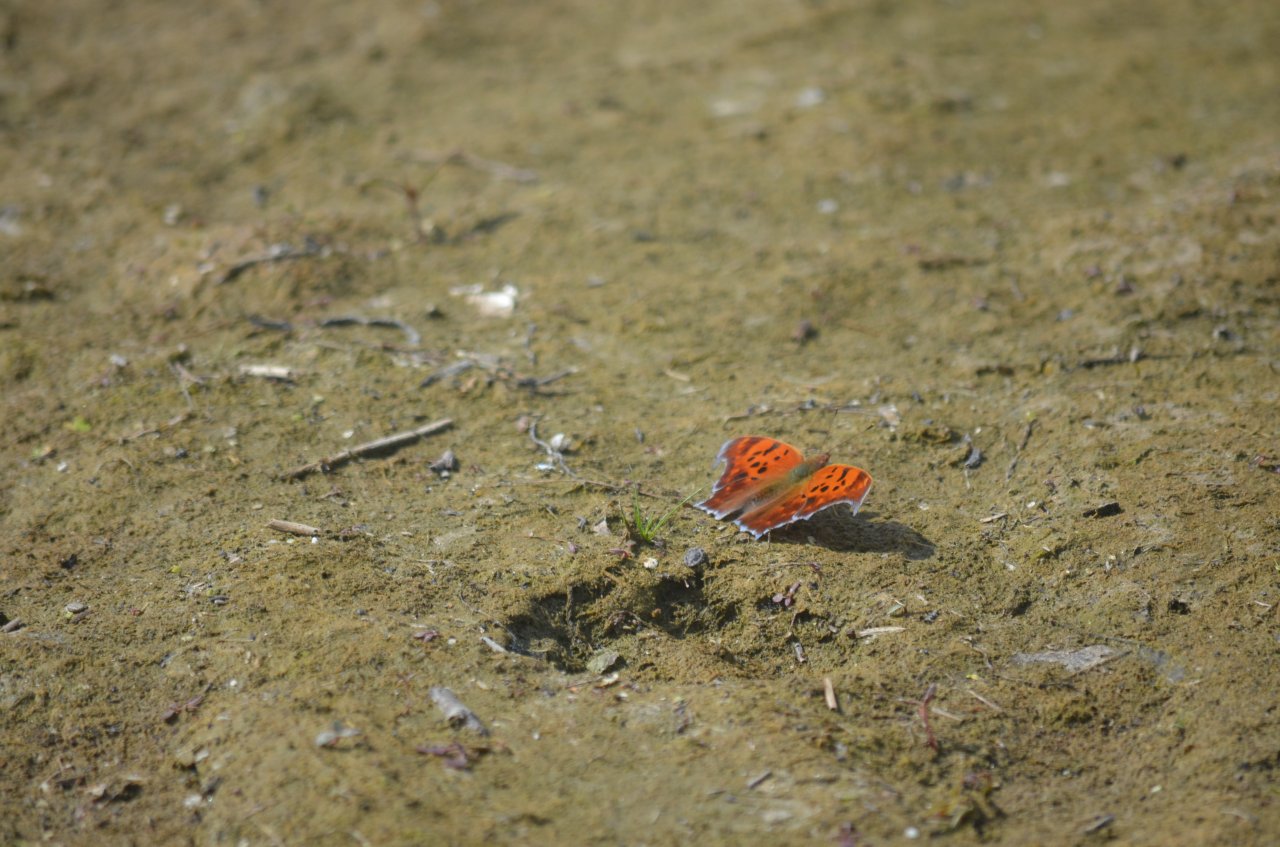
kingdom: Animalia
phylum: Arthropoda
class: Insecta
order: Lepidoptera
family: Nymphalidae
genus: Polygonia
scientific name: Polygonia interrogationis
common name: Question Mark
